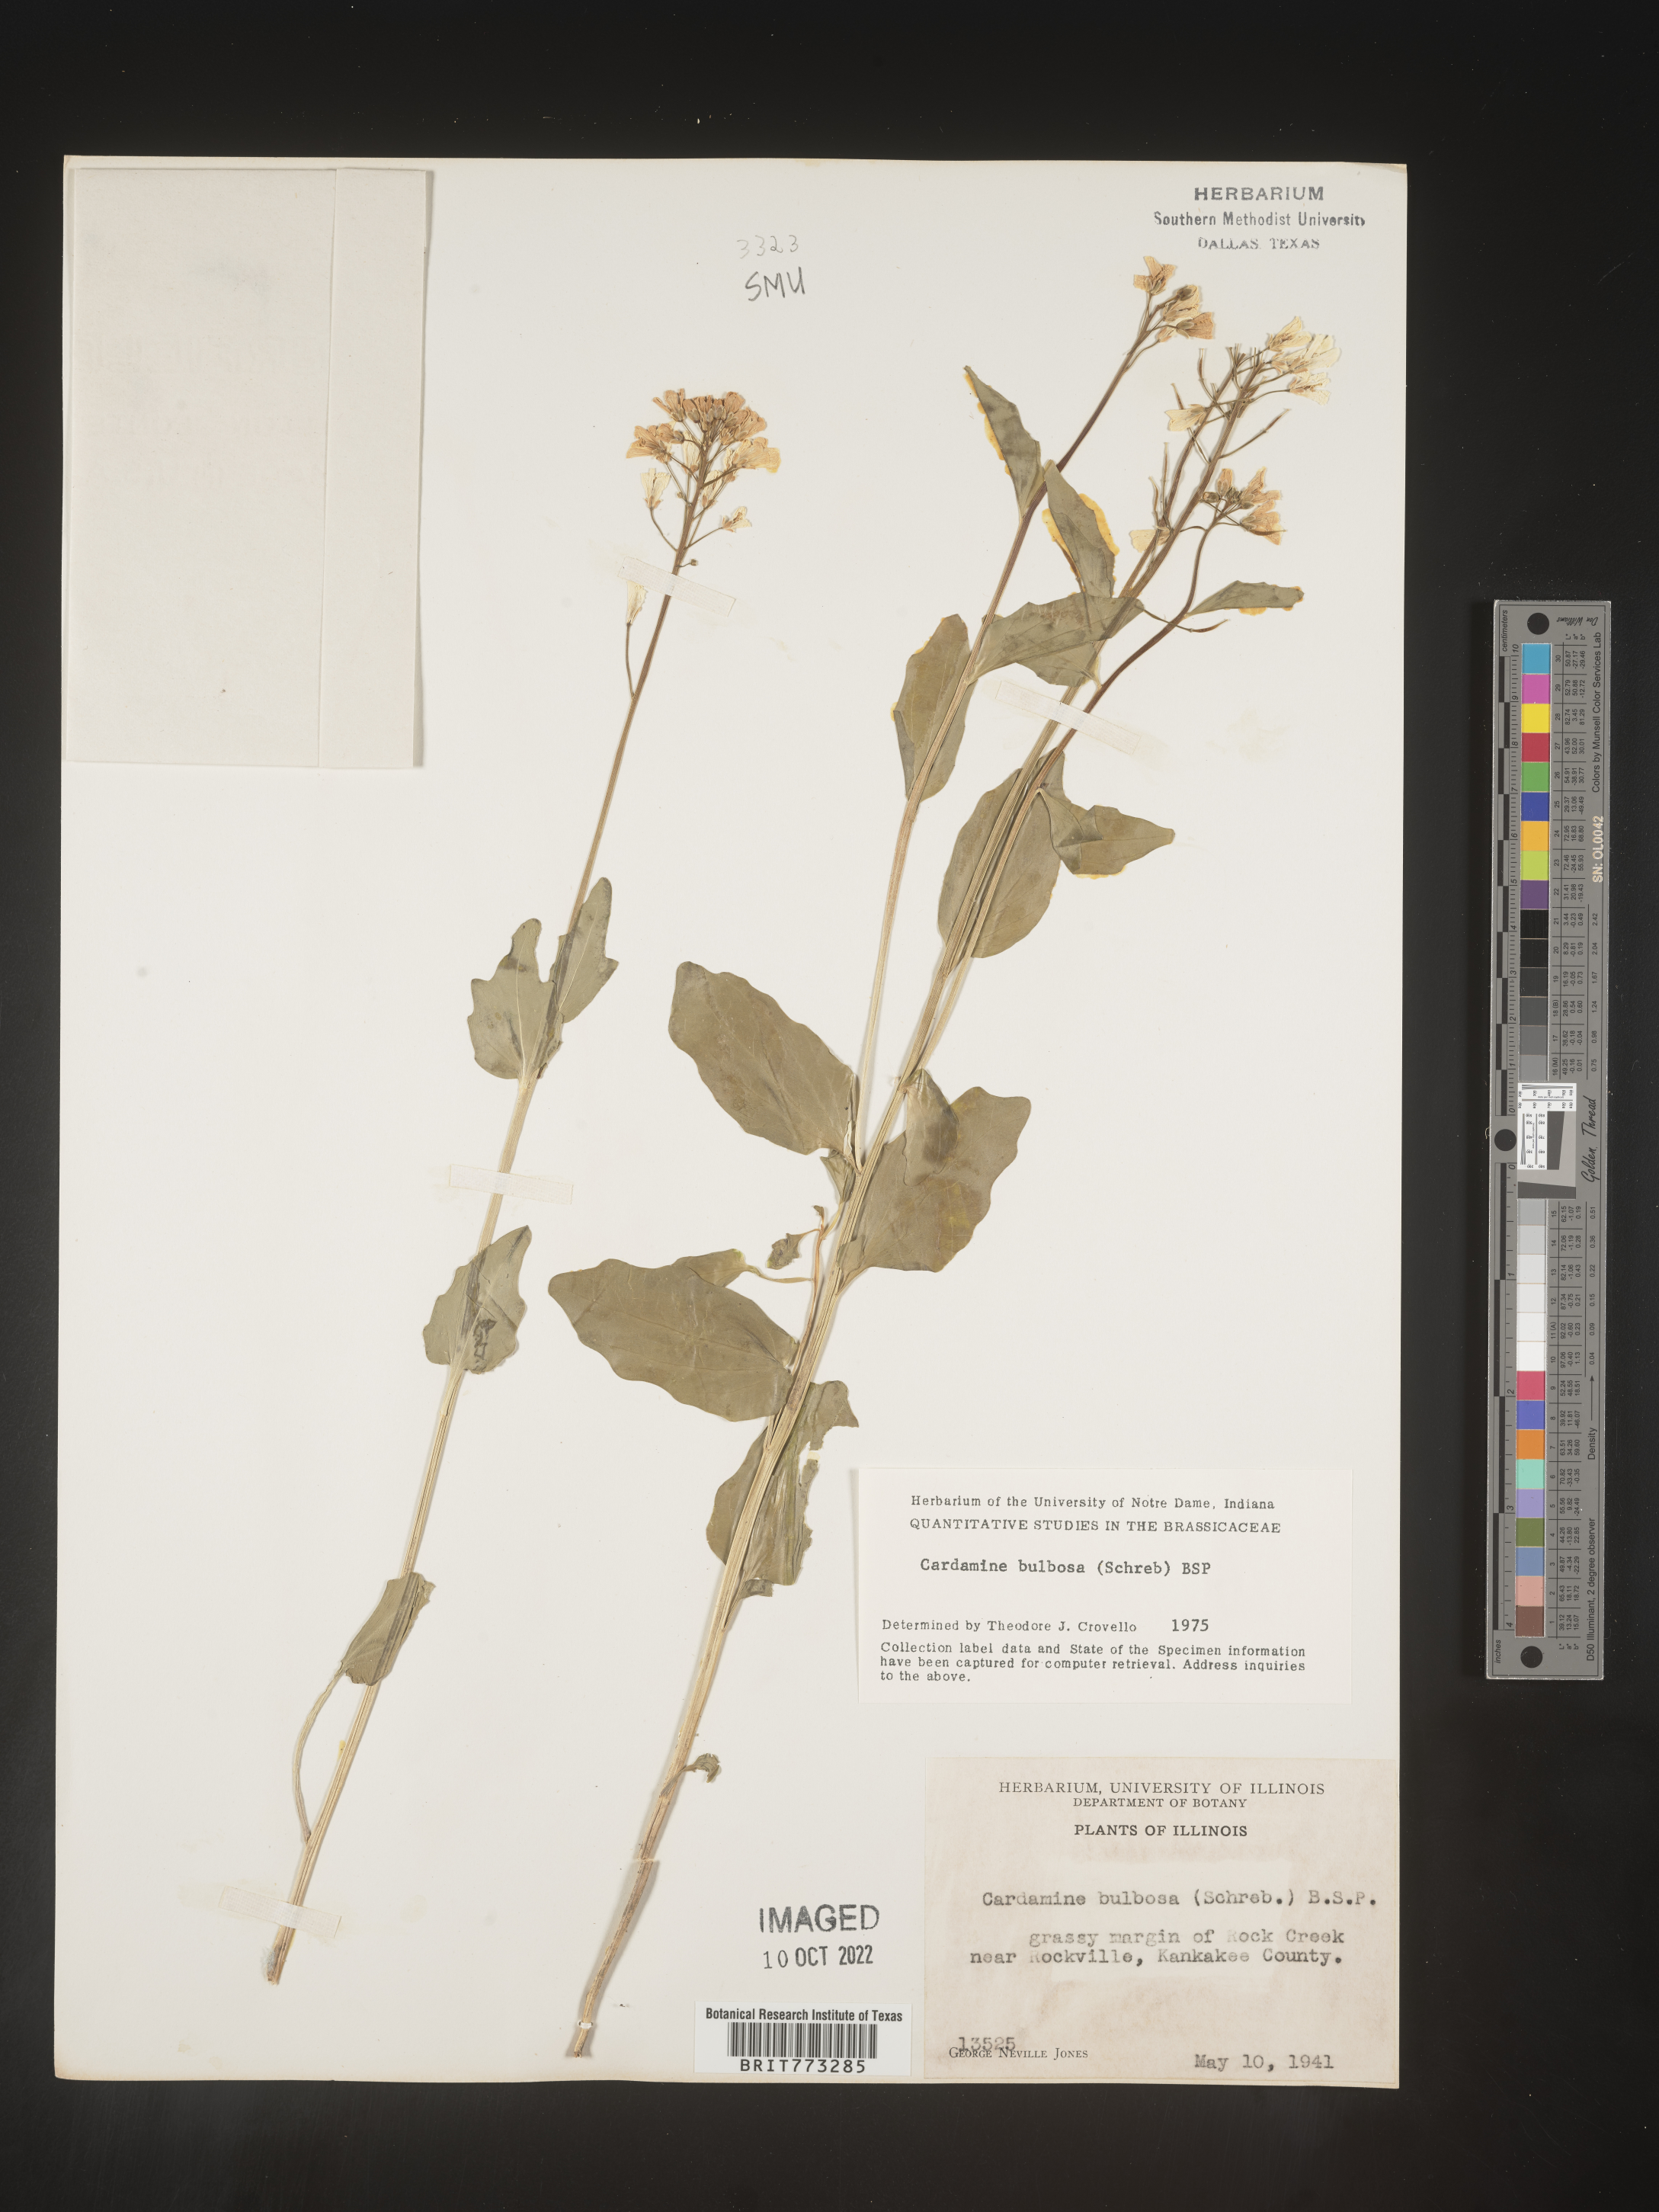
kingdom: Plantae
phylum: Tracheophyta
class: Magnoliopsida
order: Brassicales
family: Brassicaceae
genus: Cardamine
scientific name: Cardamine bulbosa
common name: Spring cress
